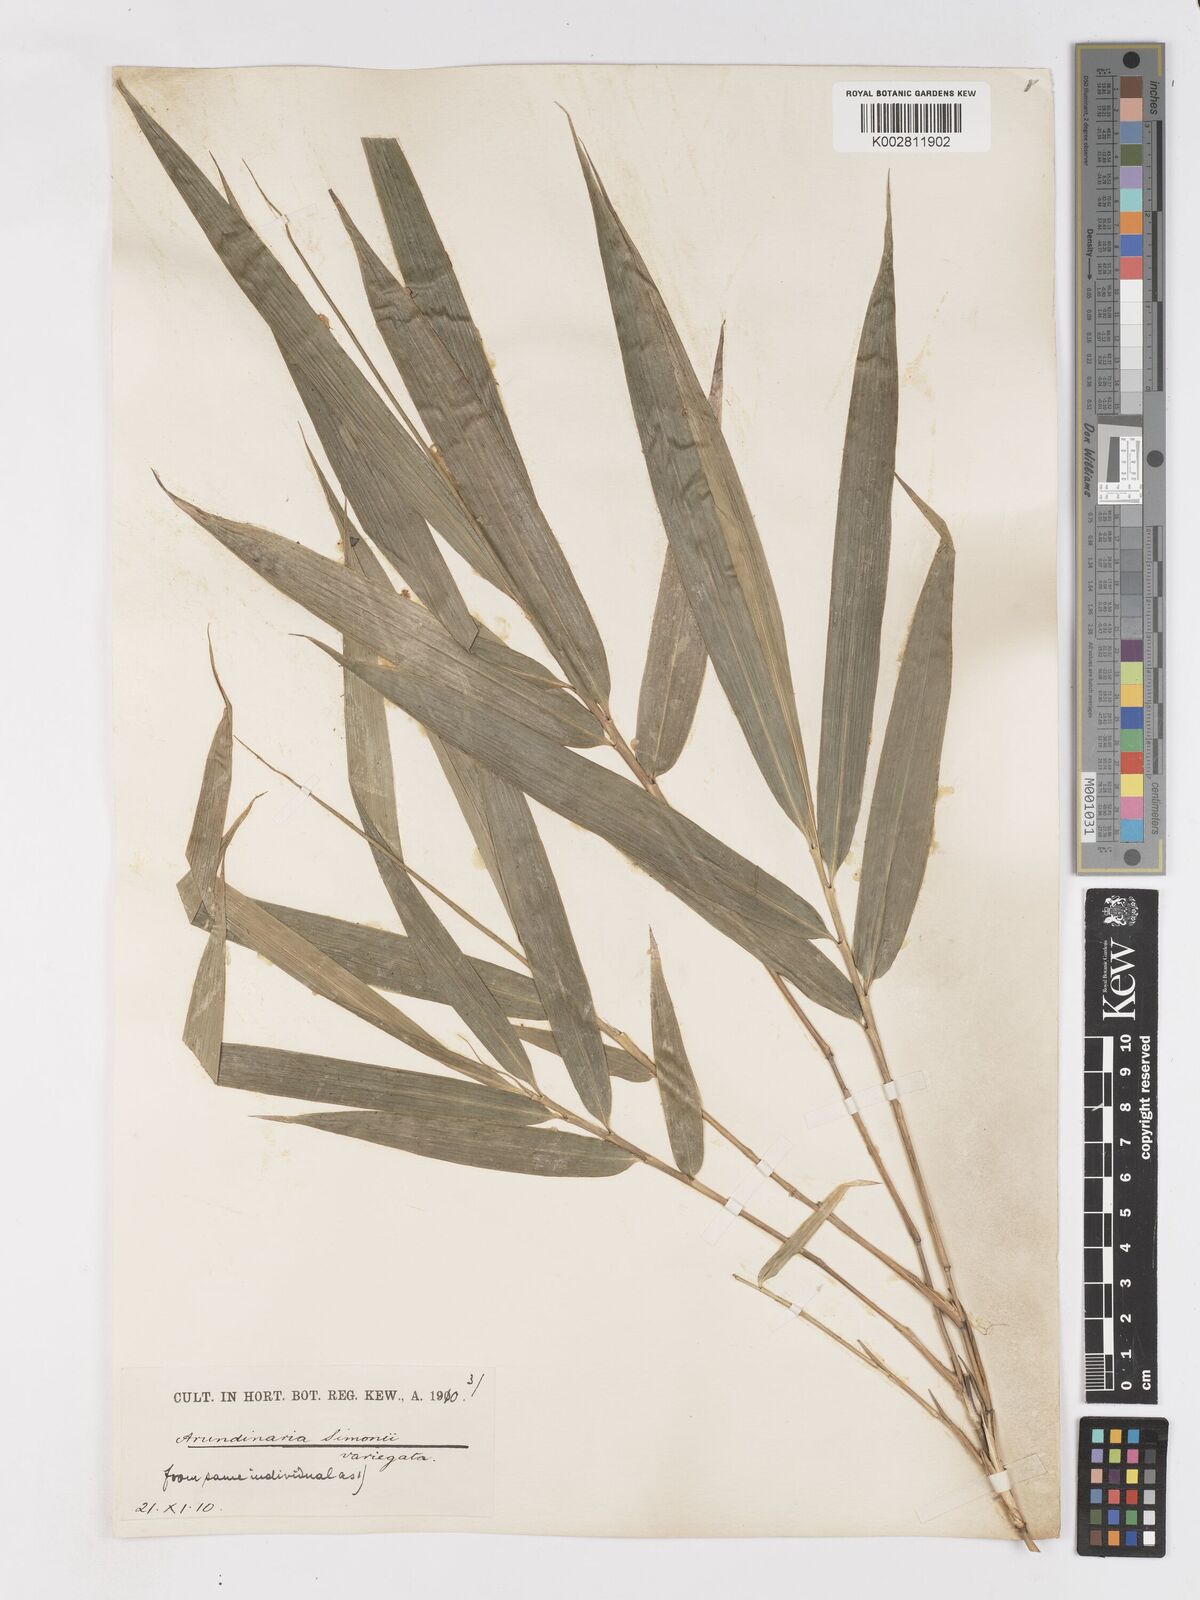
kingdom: Plantae
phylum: Tracheophyta
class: Liliopsida
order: Poales
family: Poaceae
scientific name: Poaceae
